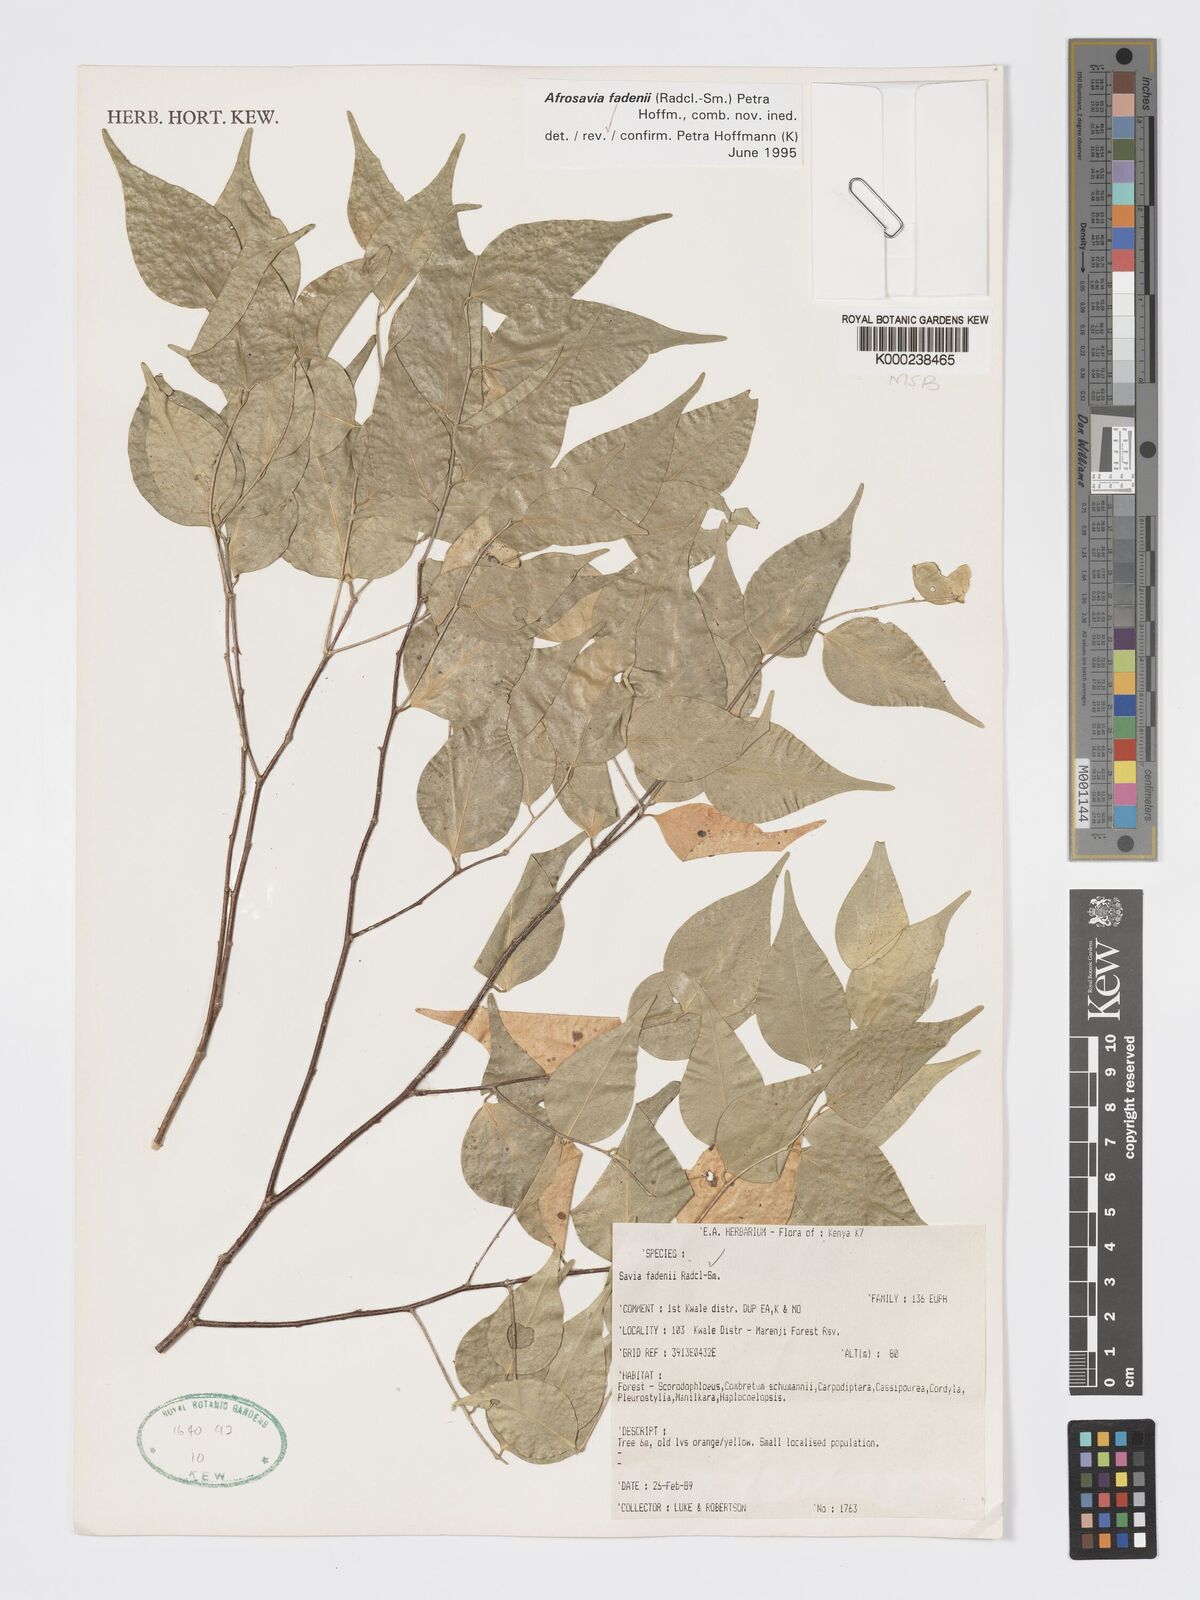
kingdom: Plantae
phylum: Tracheophyta
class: Magnoliopsida
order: Malpighiales
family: Phyllanthaceae
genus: Wielandia
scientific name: Wielandia fadenii
